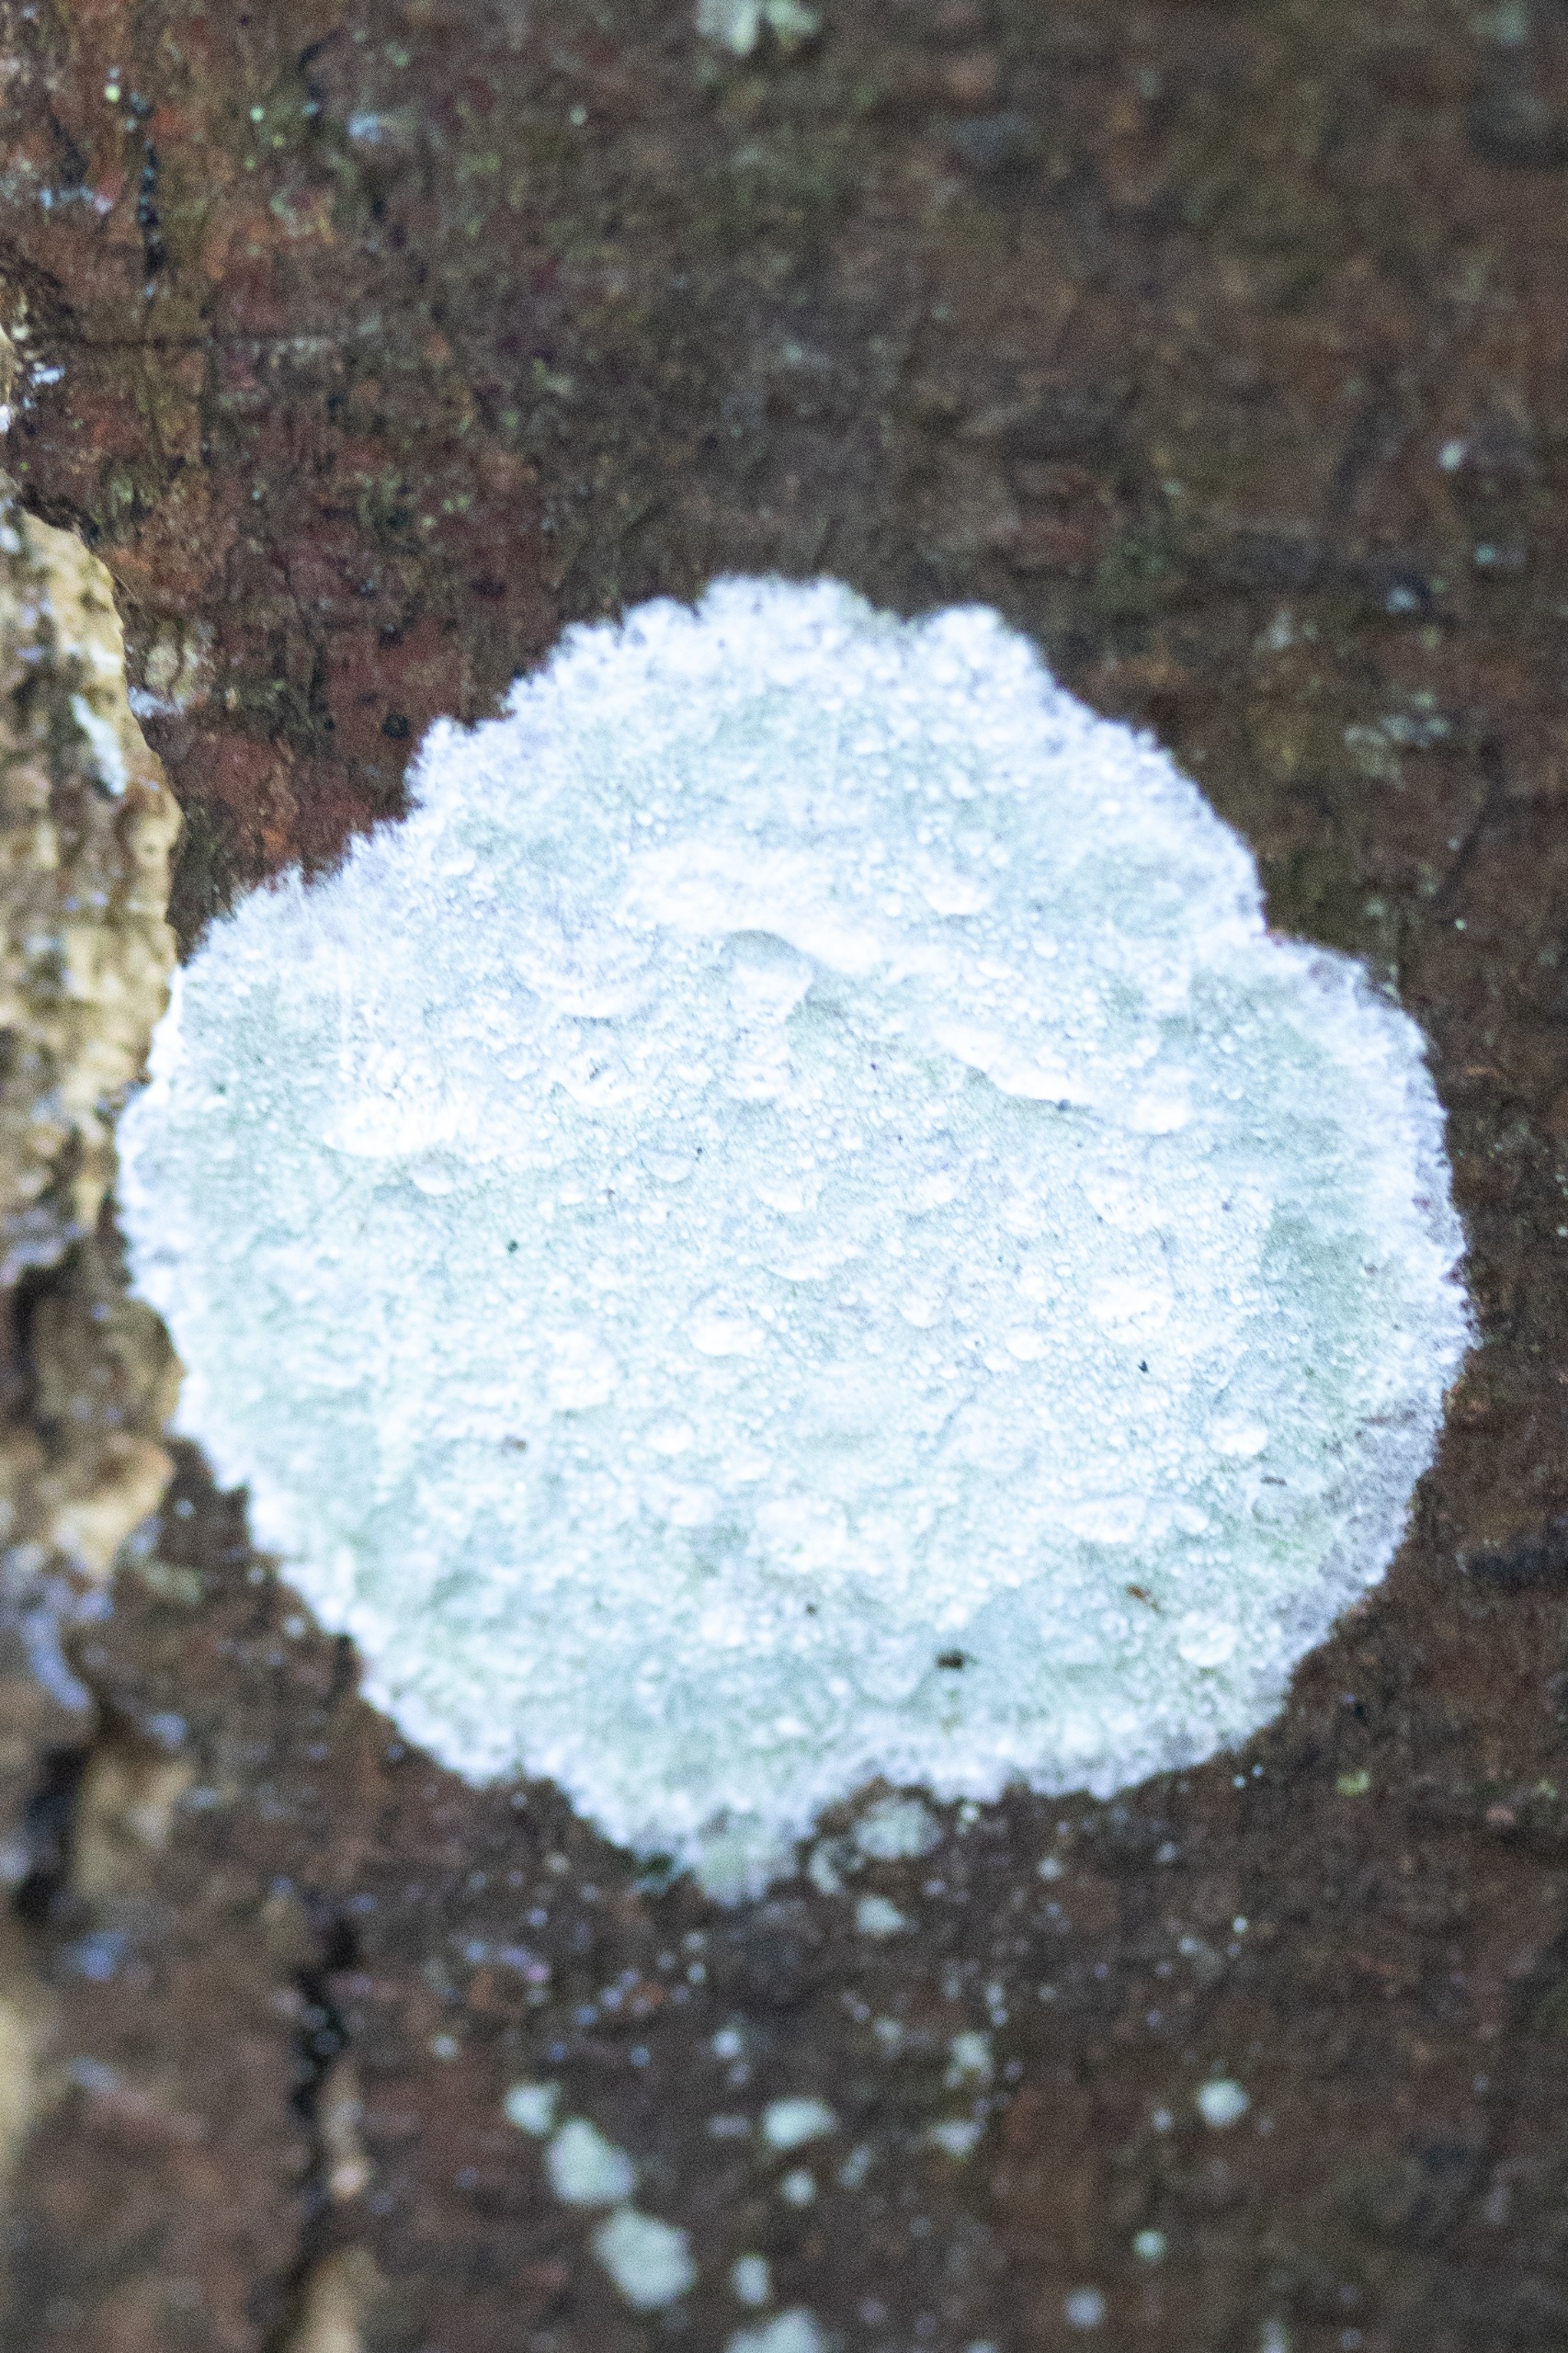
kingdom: Fungi
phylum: Ascomycota
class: Lecanoromycetes
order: Ostropales
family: Phlyctidaceae
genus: Phlyctis
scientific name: Phlyctis argena
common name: Almindelig sølvlav
